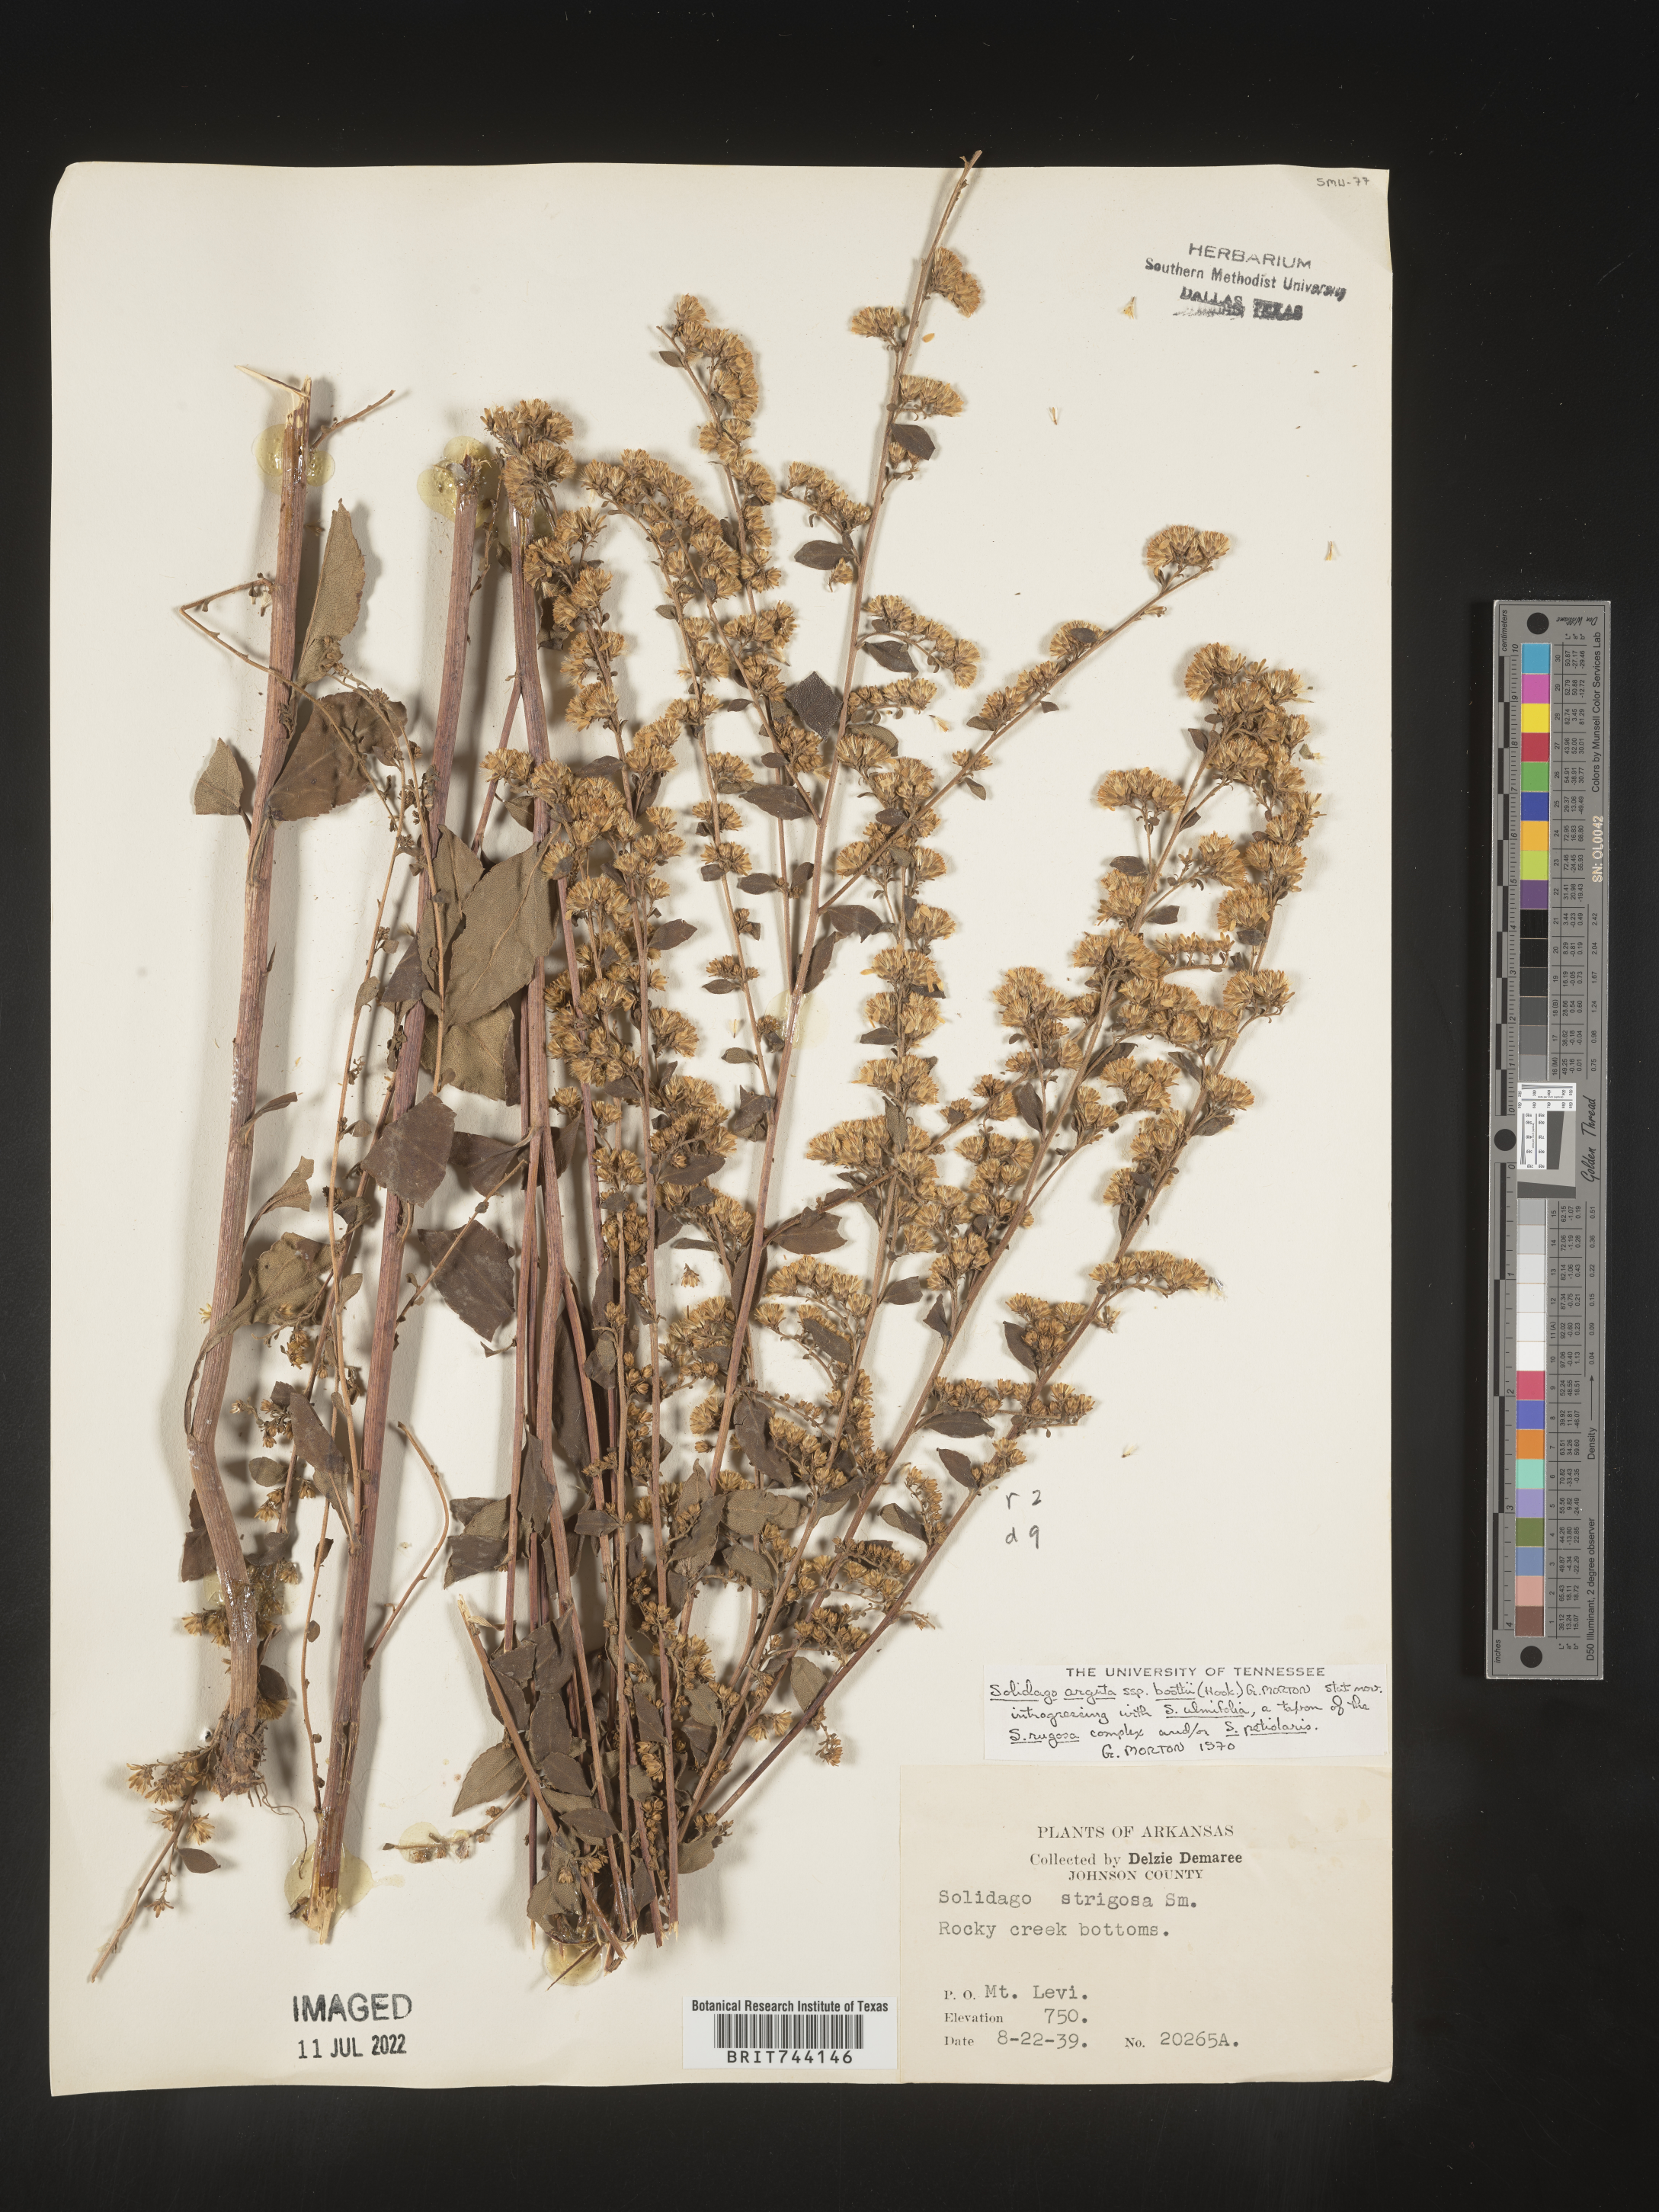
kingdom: Plantae
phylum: Tracheophyta
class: Magnoliopsida
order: Asterales
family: Asteraceae
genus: Solidago
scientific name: Solidago arguta
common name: Atlantic goldenrod
